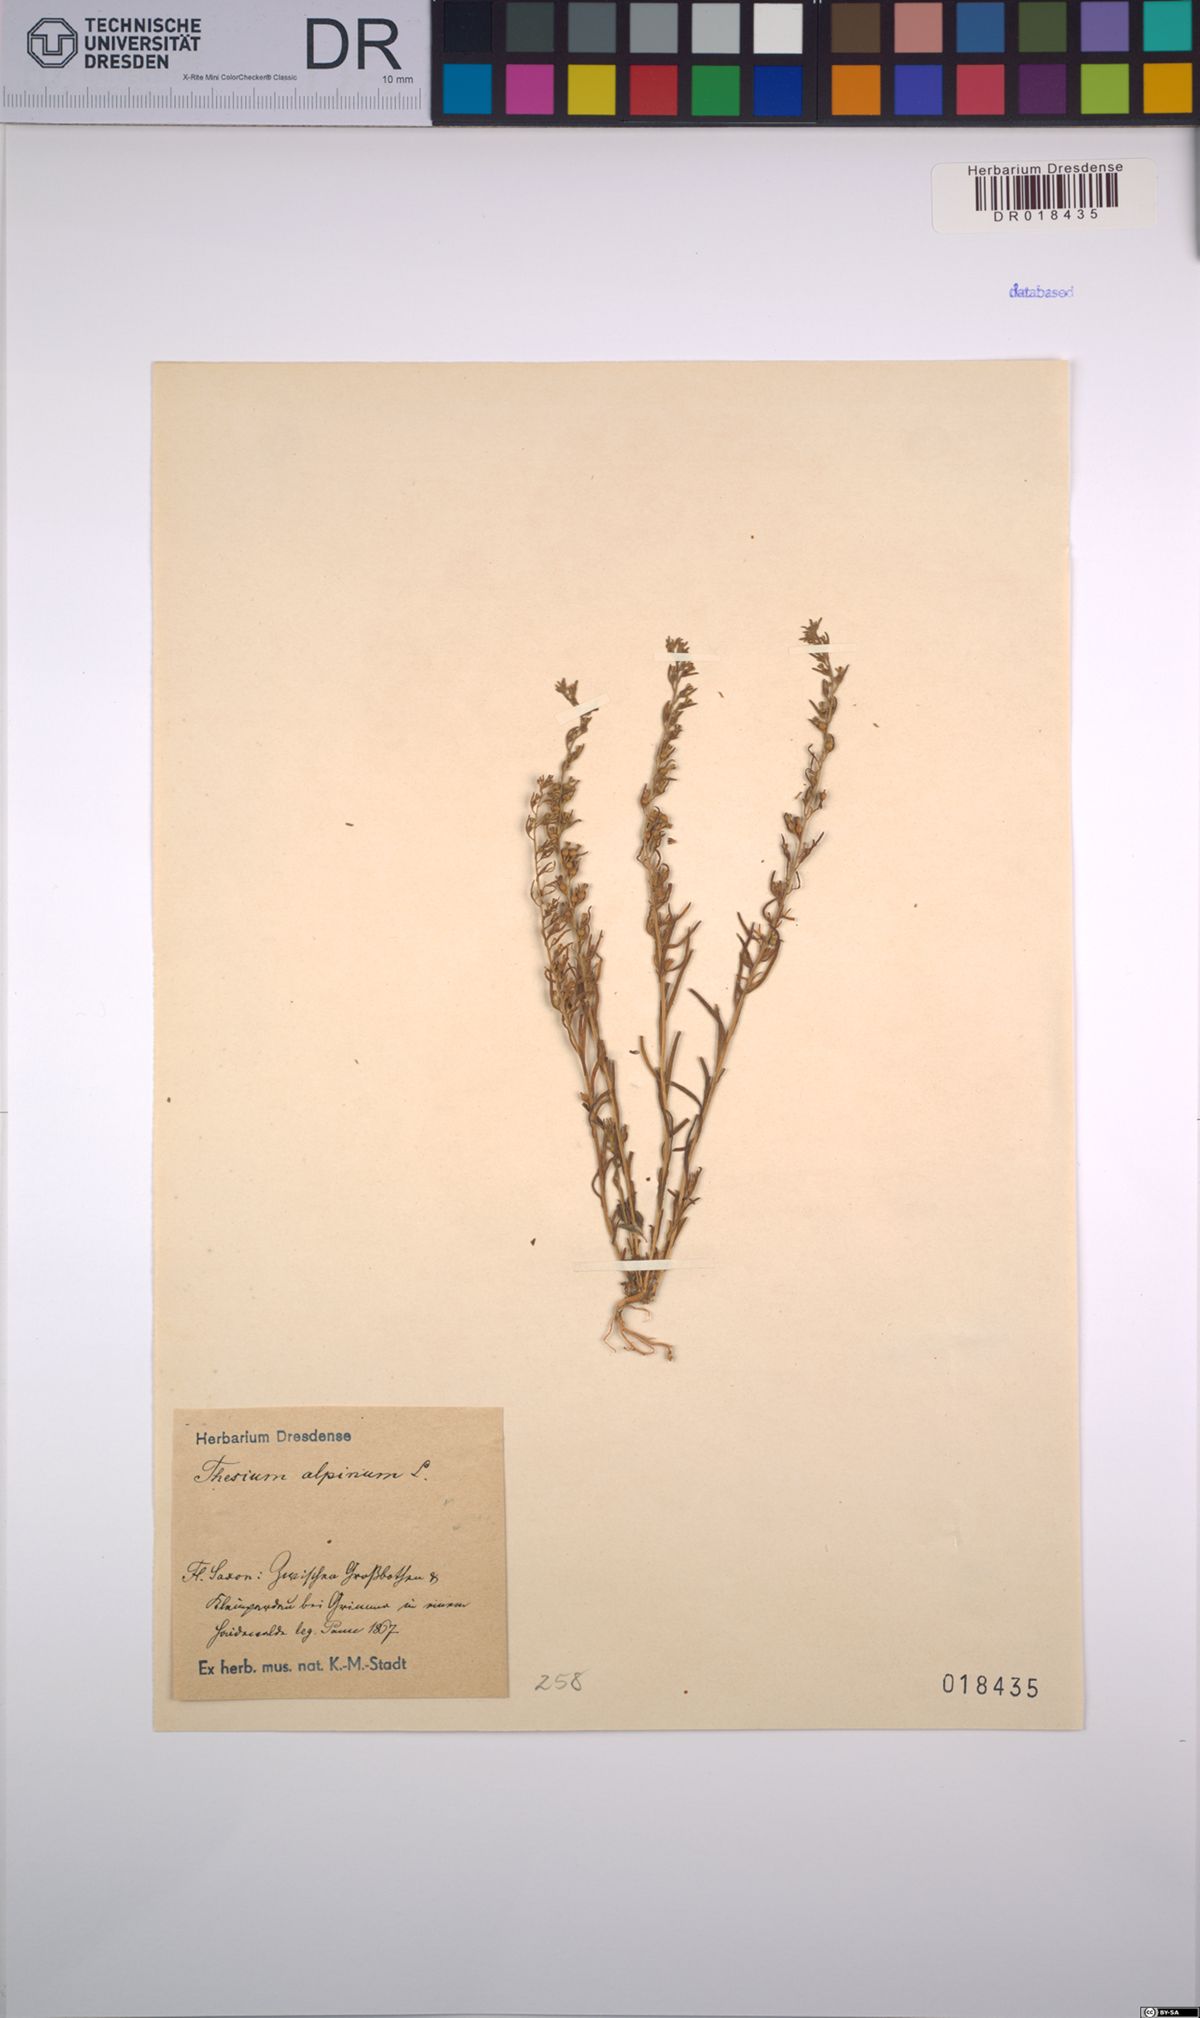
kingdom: Plantae
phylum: Tracheophyta
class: Magnoliopsida
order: Santalales
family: Thesiaceae
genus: Thesium
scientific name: Thesium alpinum
